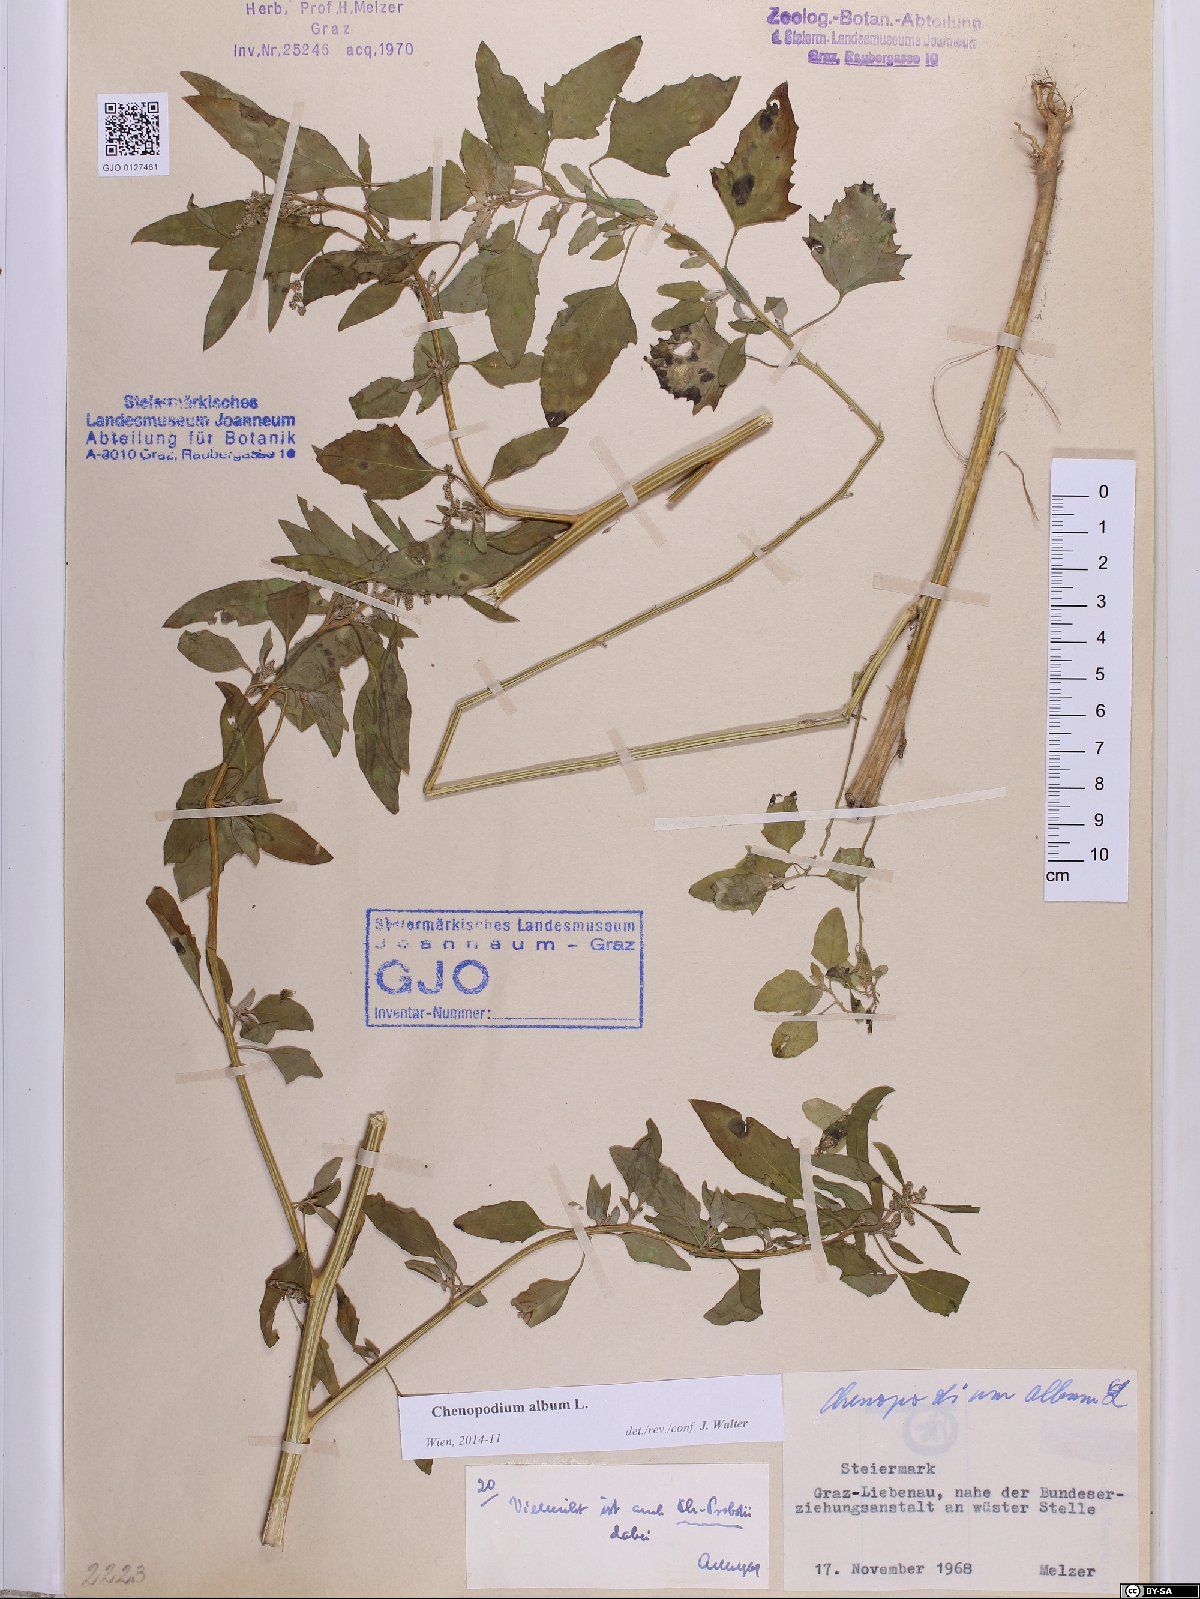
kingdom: Plantae
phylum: Tracheophyta
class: Magnoliopsida
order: Caryophyllales
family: Amaranthaceae
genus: Chenopodium
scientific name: Chenopodium album
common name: Fat-hen
